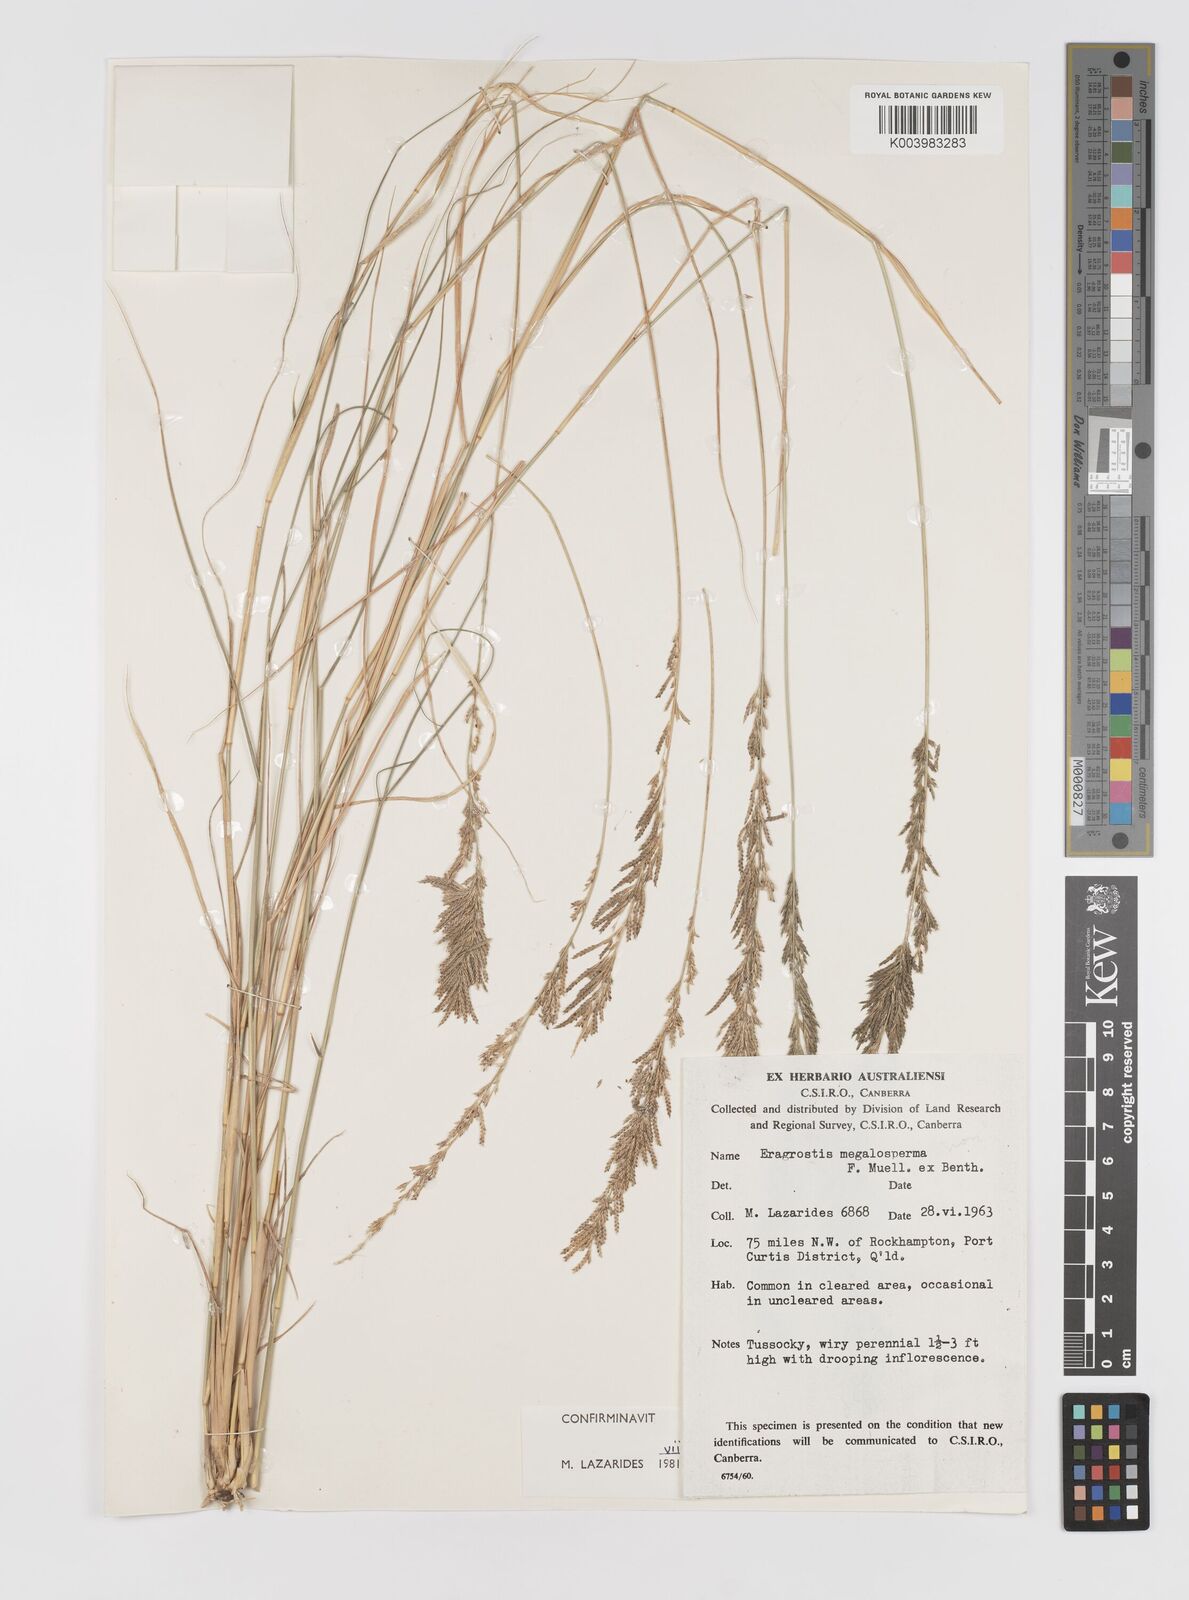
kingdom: Plantae
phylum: Tracheophyta
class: Liliopsida
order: Poales
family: Poaceae
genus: Sporobolus
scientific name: Sporobolus megalospermus
